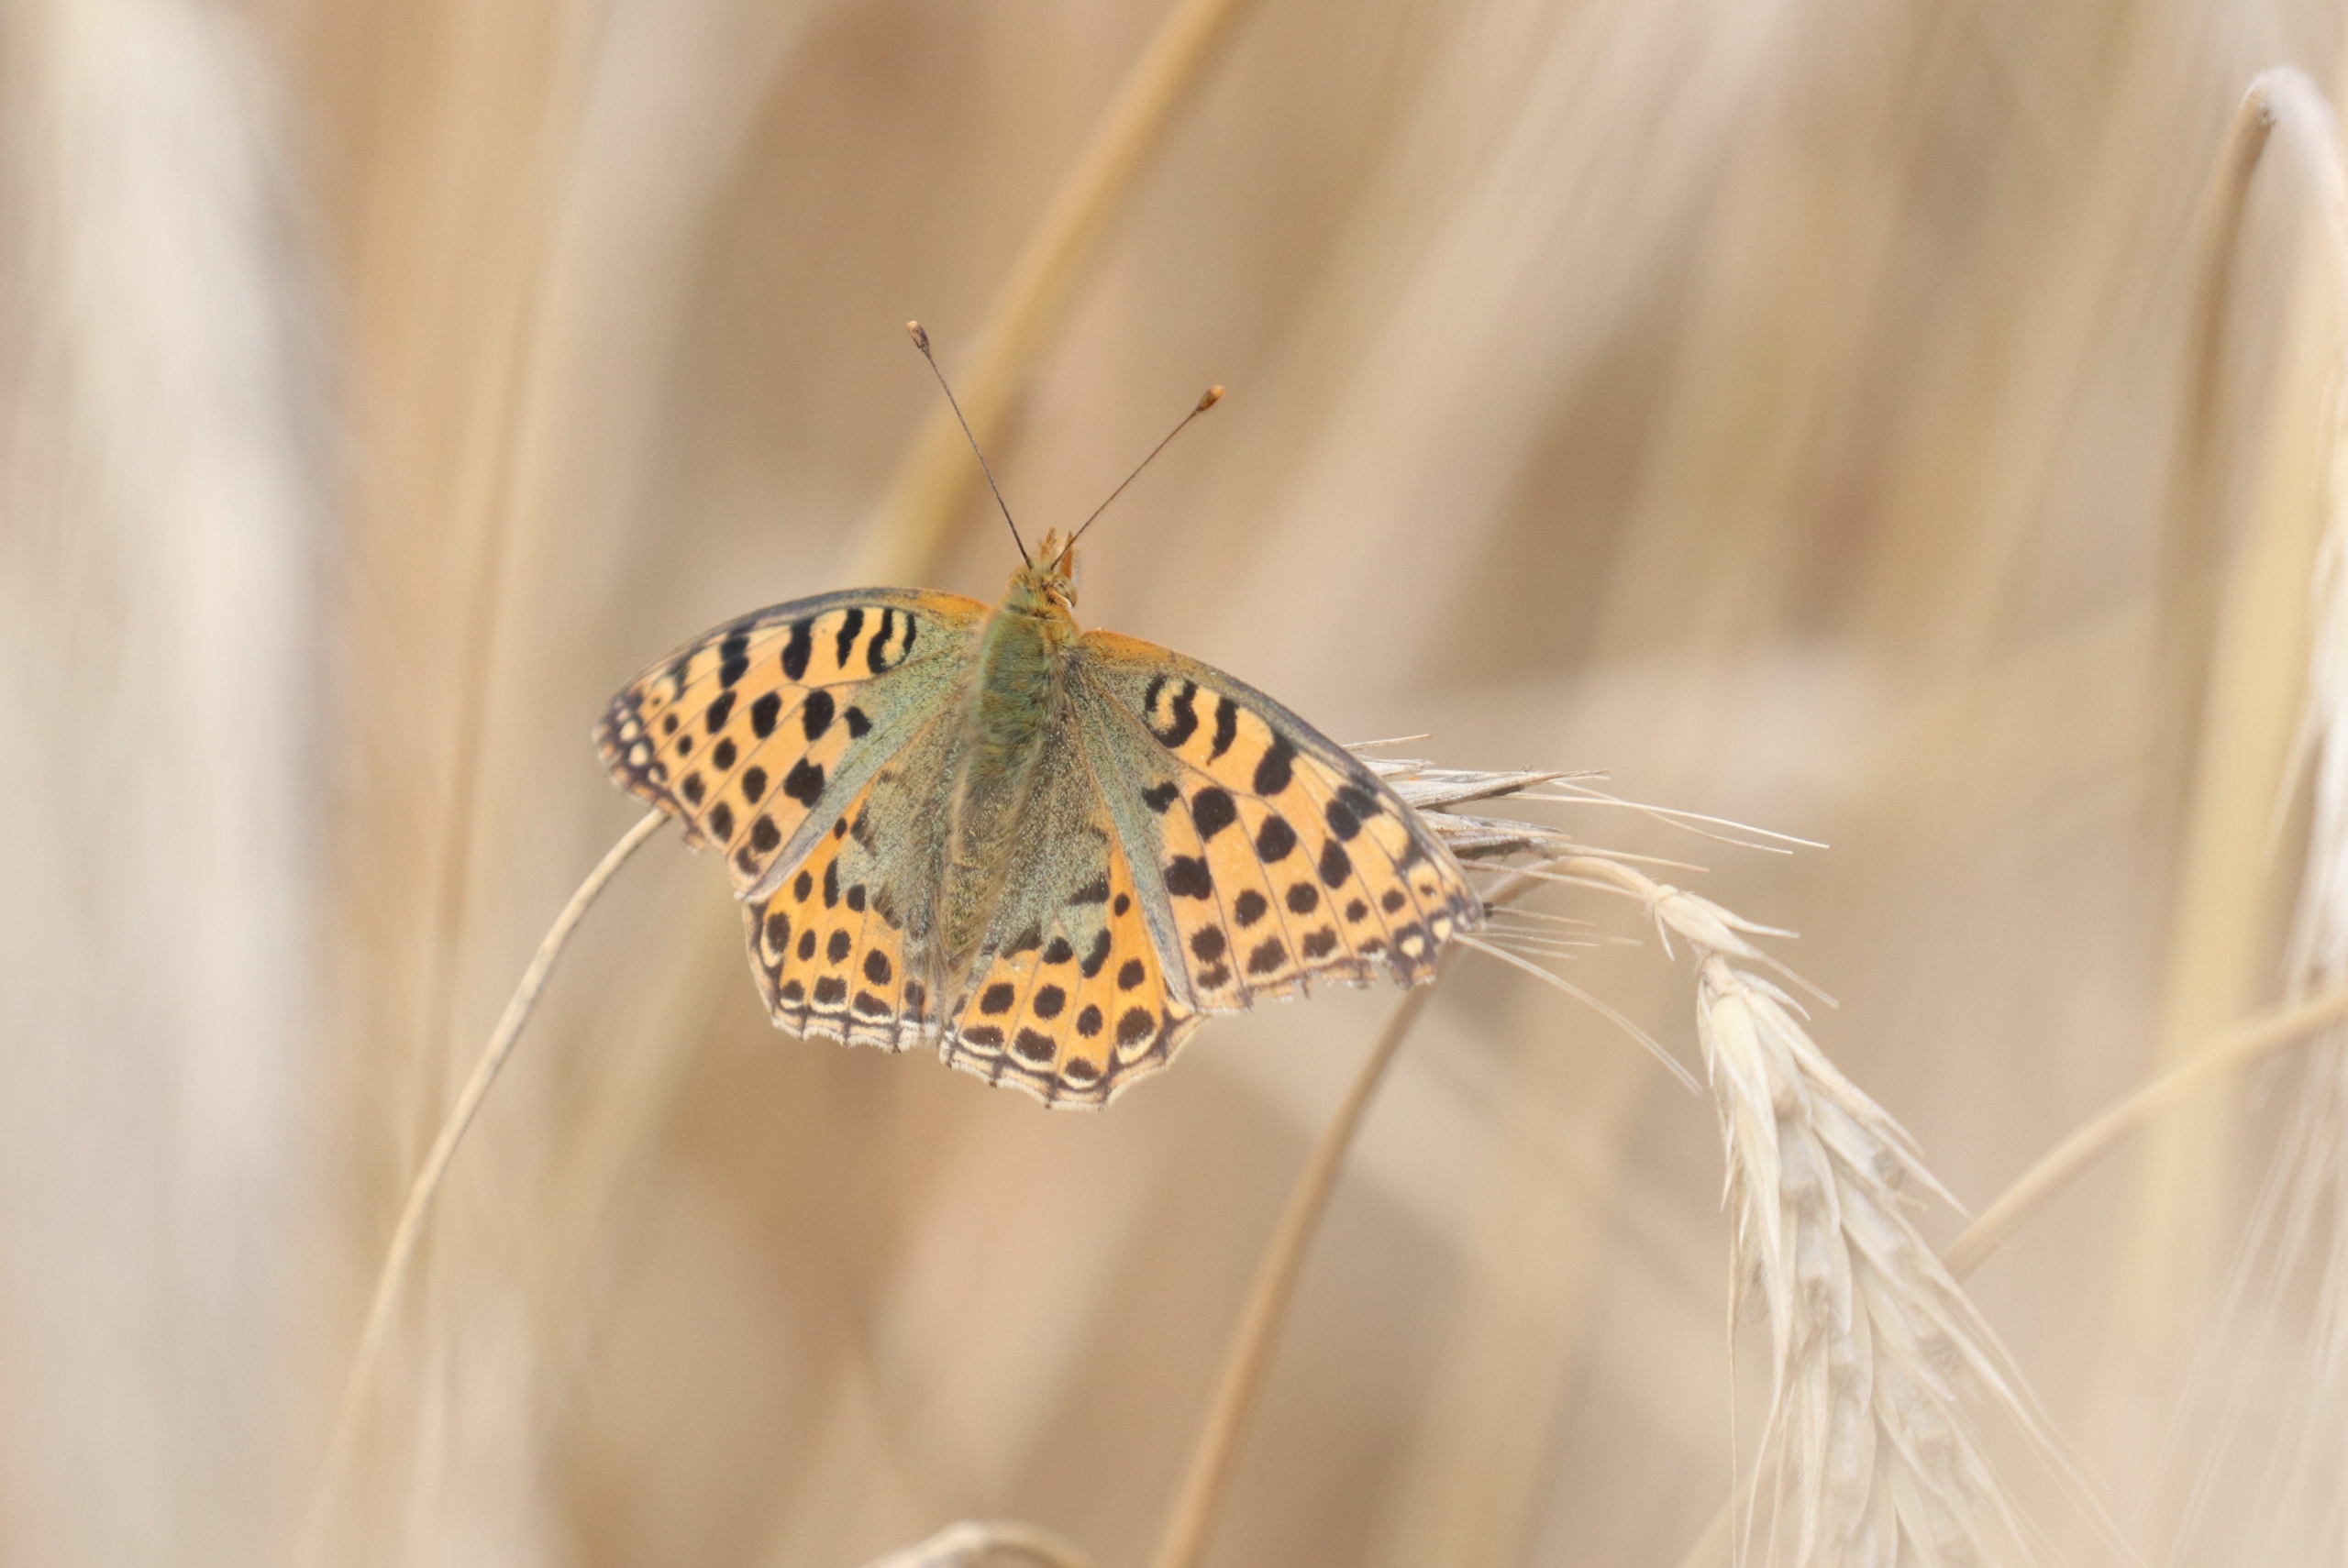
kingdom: Animalia
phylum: Arthropoda
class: Insecta
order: Lepidoptera
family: Nymphalidae
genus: Issoria
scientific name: Issoria lathonia
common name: Storplettet perlemorsommerfugl
